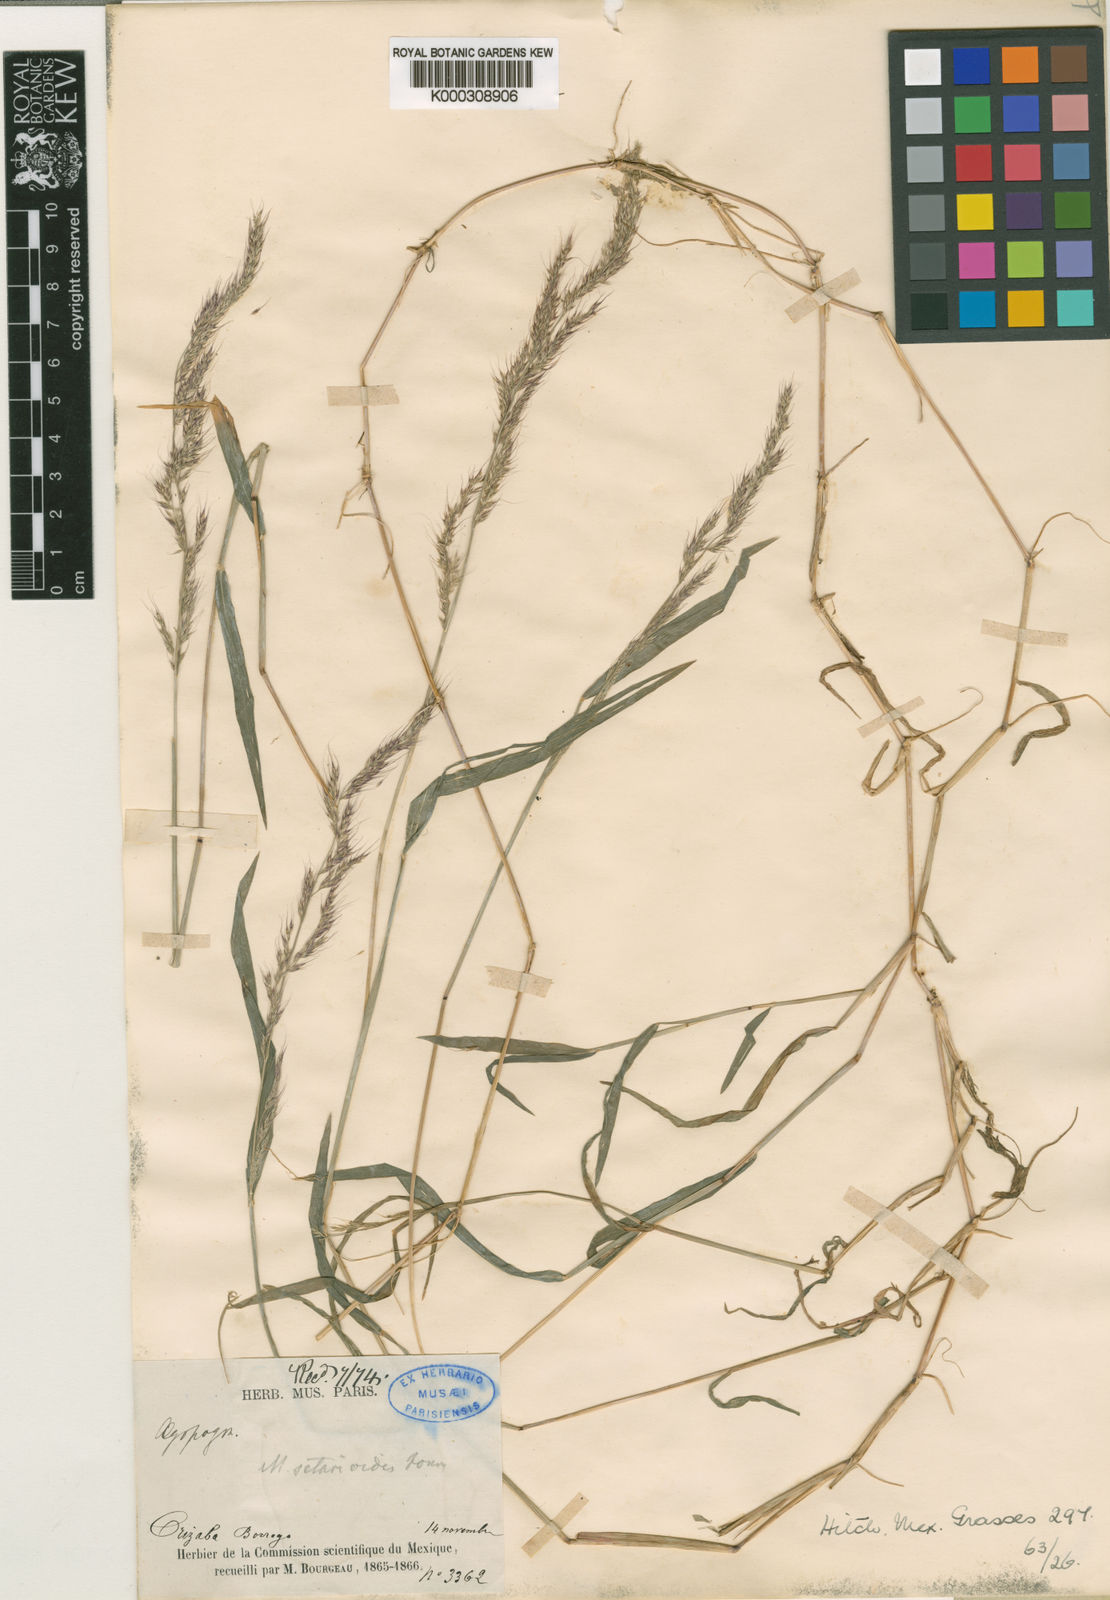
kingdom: Plantae
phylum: Tracheophyta
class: Liliopsida
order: Poales
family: Poaceae
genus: Muhlenbergia
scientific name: Muhlenbergia setarioides
